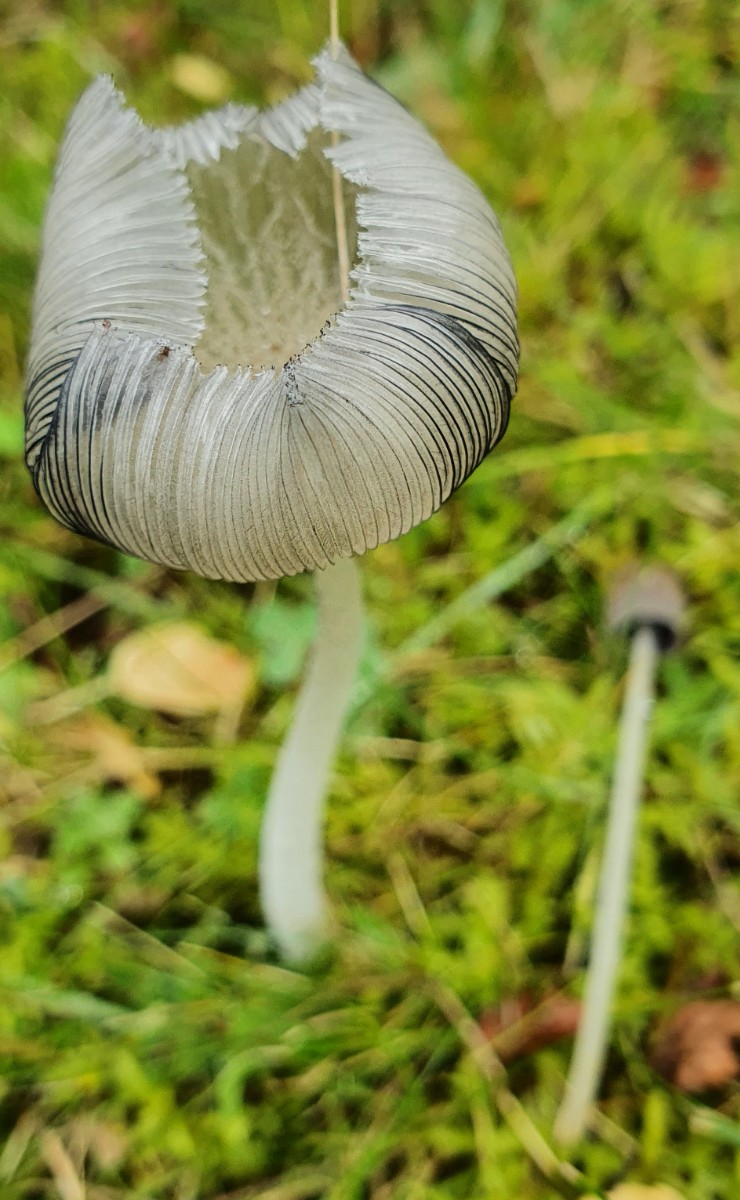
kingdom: Fungi
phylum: Basidiomycota
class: Agaricomycetes
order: Agaricales
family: Psathyrellaceae
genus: Coprinopsis
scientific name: Coprinopsis lagopus
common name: dunstokket blækhat
